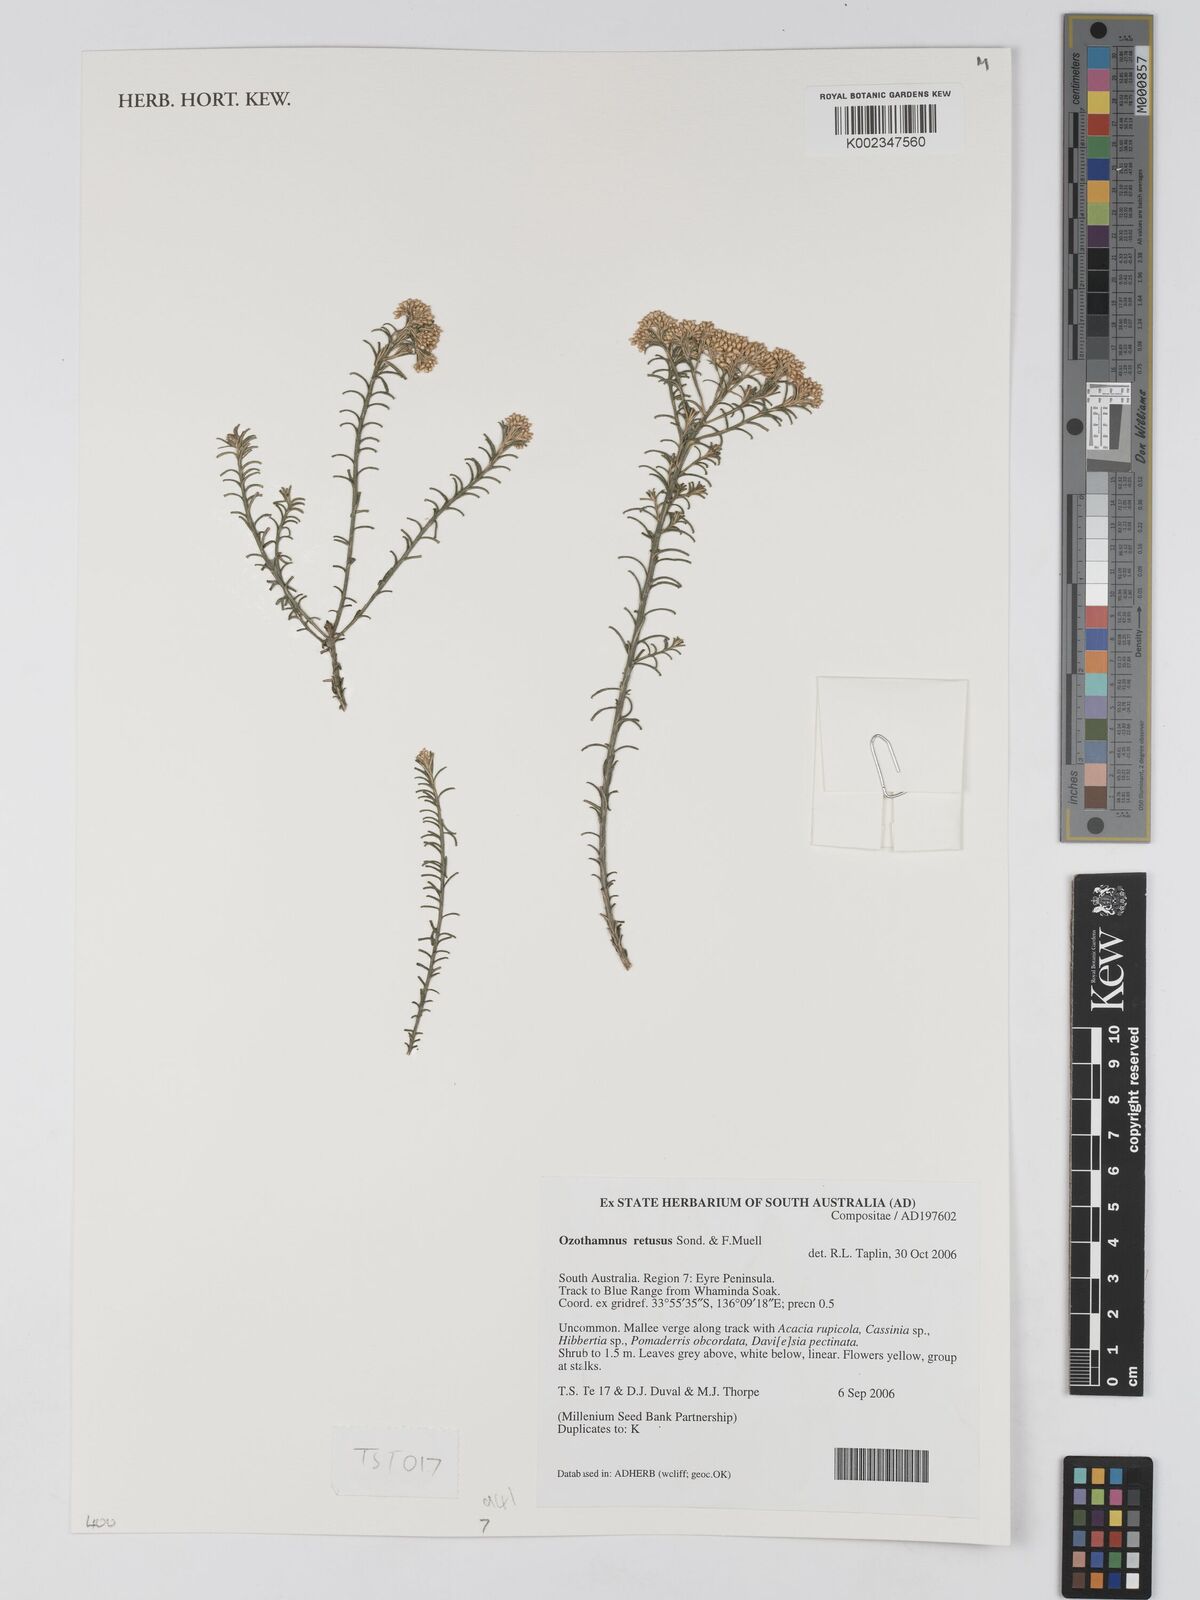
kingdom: Plantae
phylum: Tracheophyta
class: Magnoliopsida
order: Asterales
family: Asteraceae
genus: Ozothamnus
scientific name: Ozothamnus adnatus
